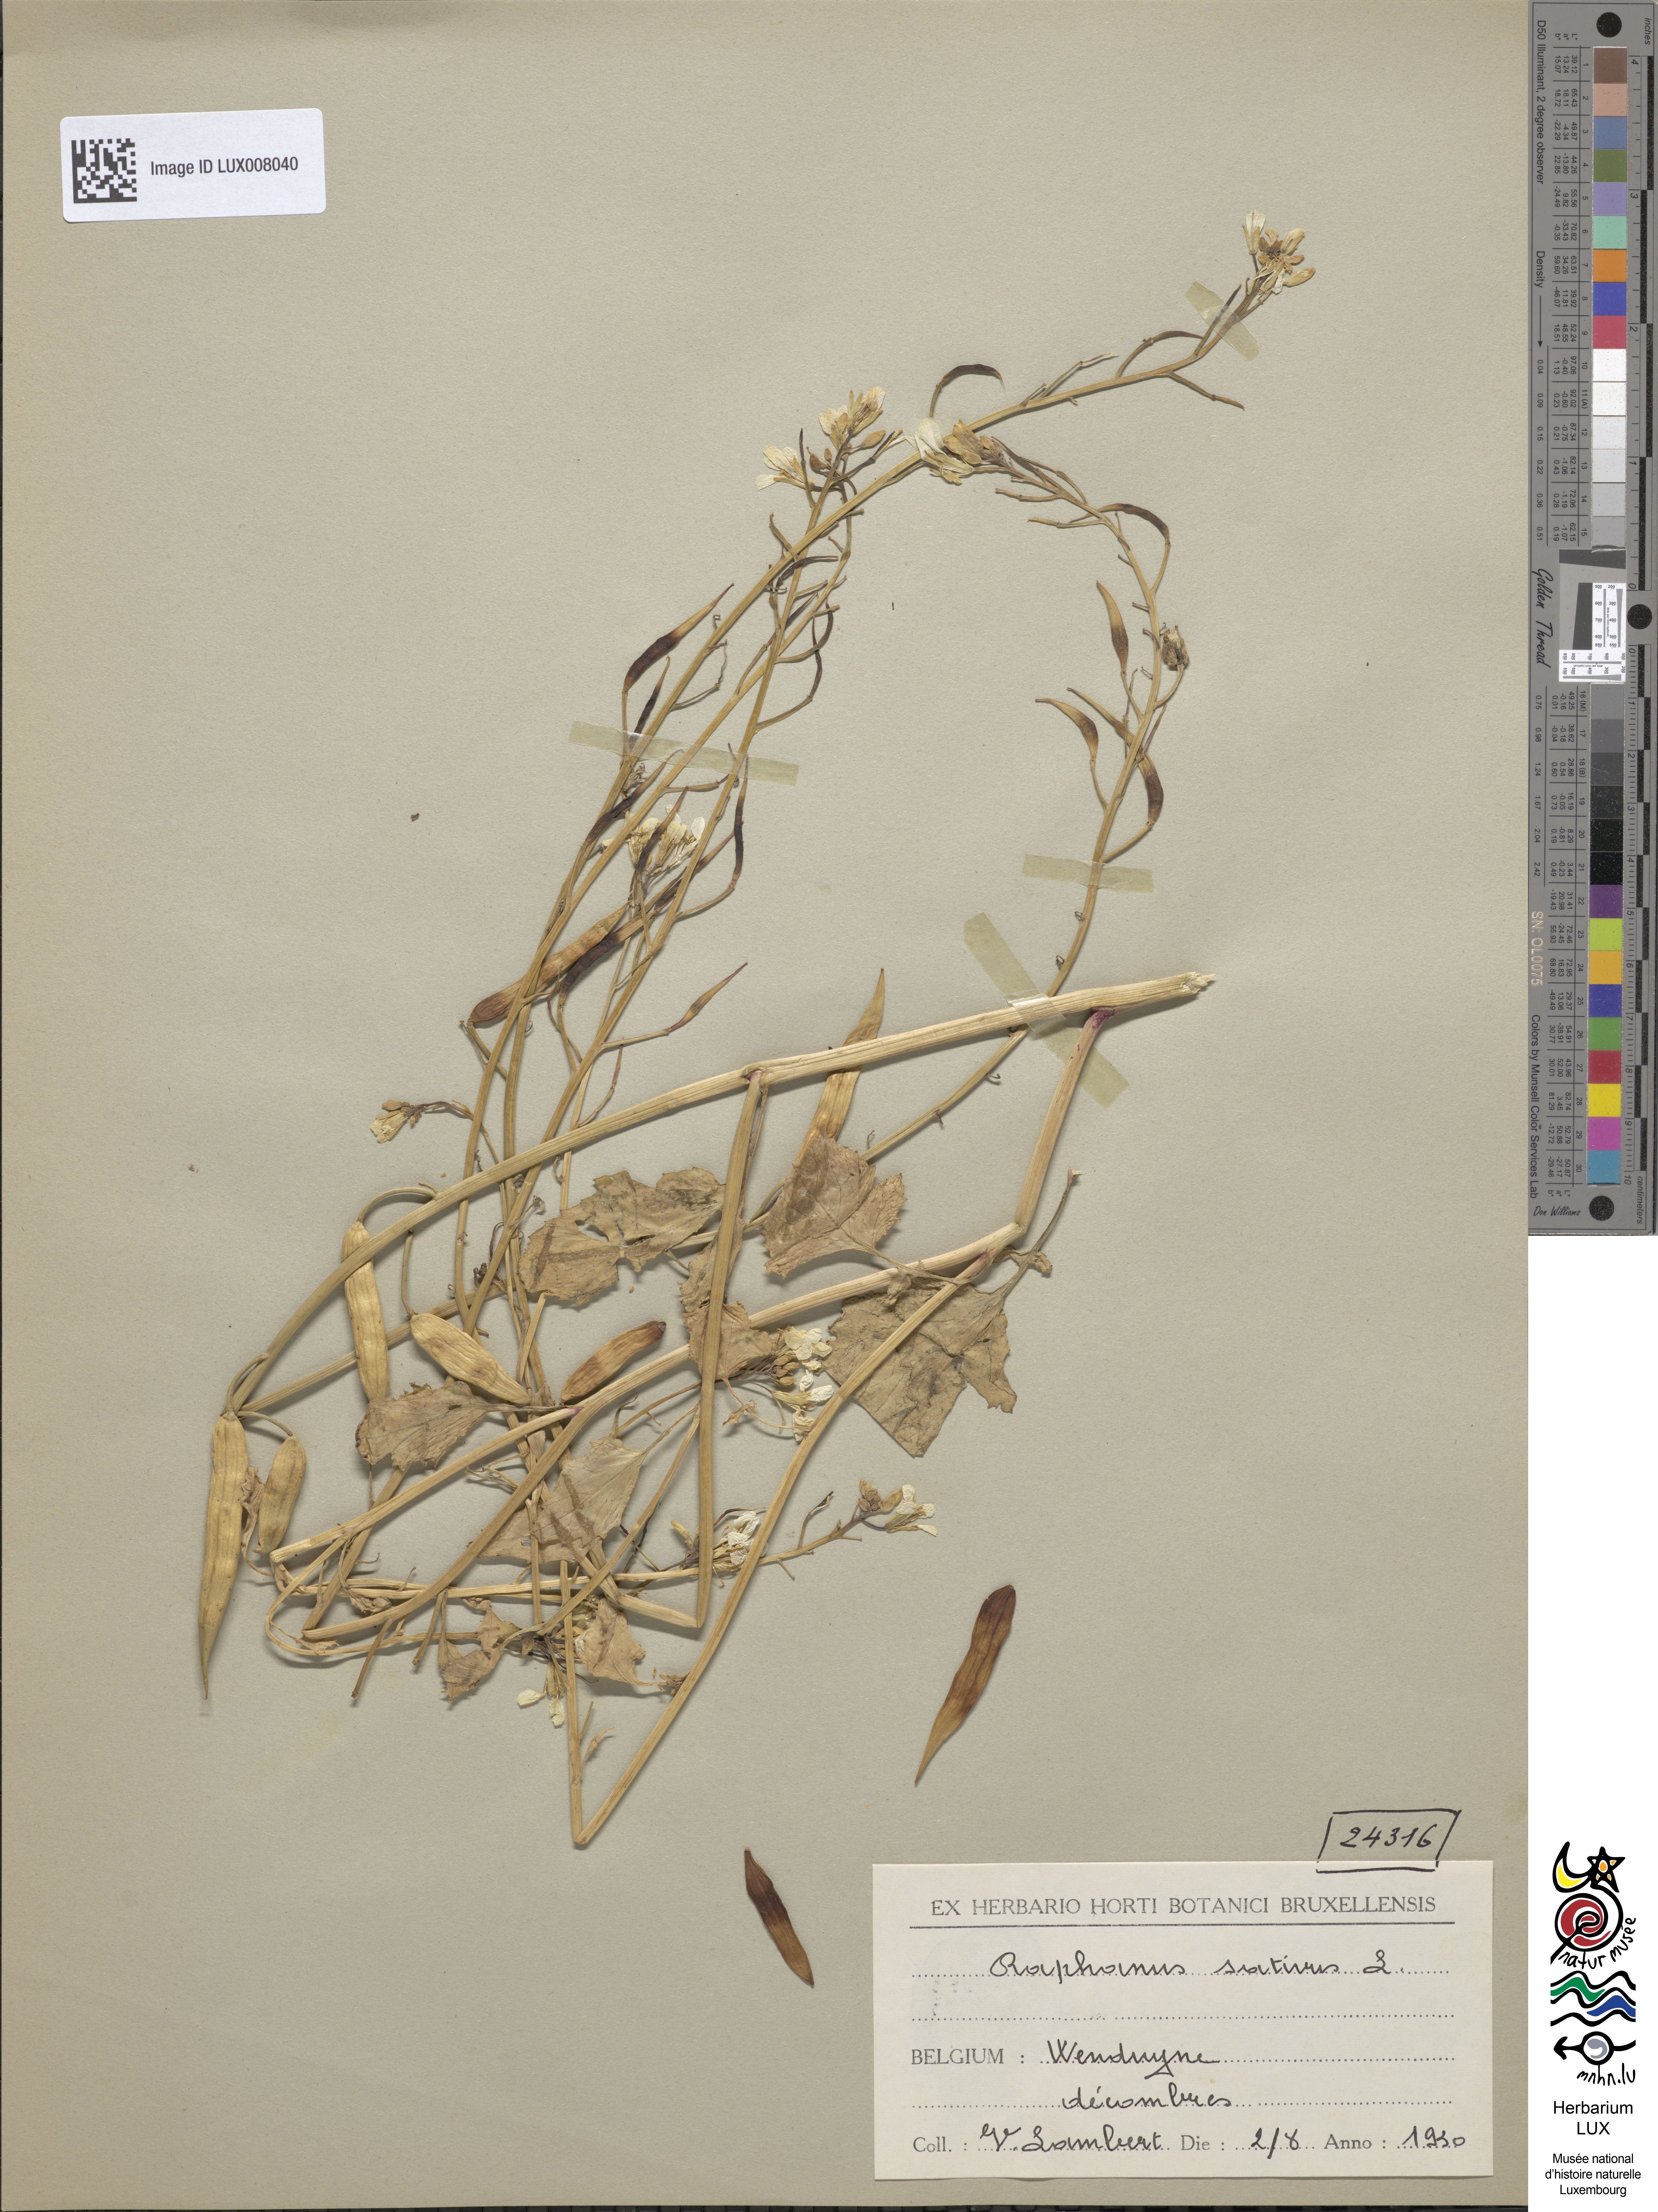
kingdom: Plantae
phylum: Tracheophyta
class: Magnoliopsida
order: Brassicales
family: Brassicaceae
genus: Raphanus
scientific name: Raphanus sativus
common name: Cultivated radish
